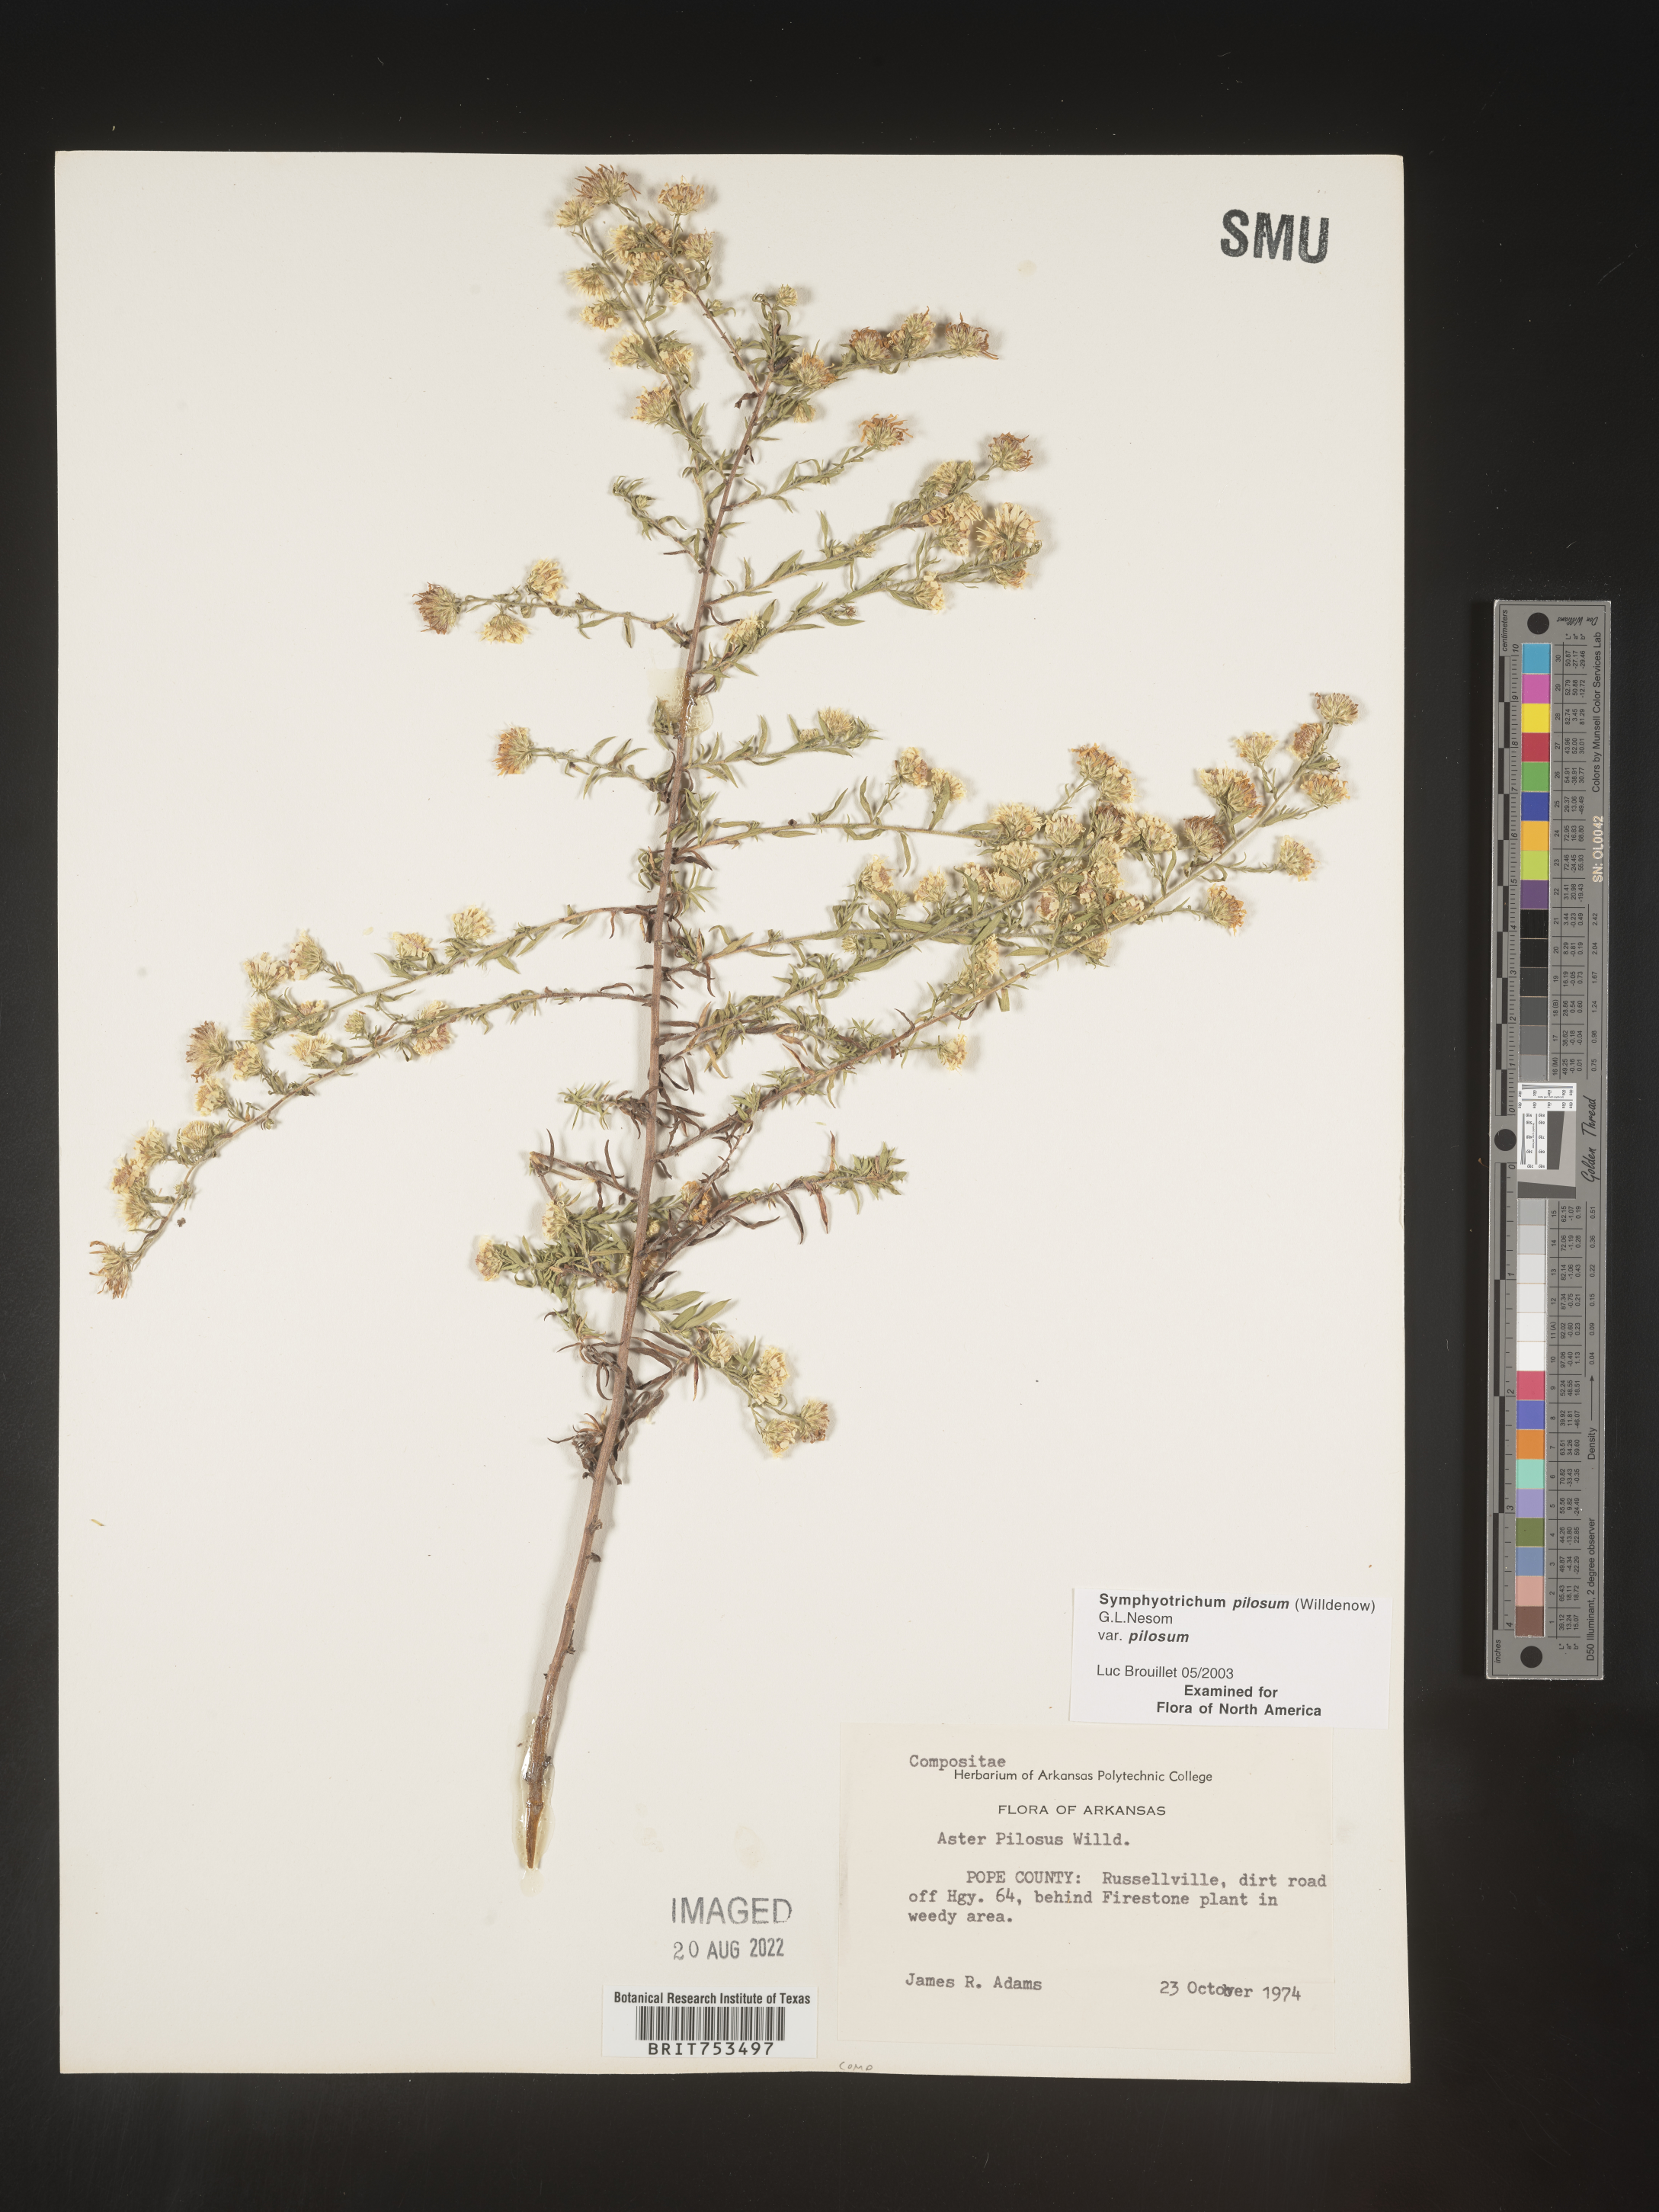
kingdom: Plantae
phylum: Tracheophyta
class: Magnoliopsida
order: Asterales
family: Asteraceae
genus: Symphyotrichum
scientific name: Symphyotrichum pilosum
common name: Awl aster
